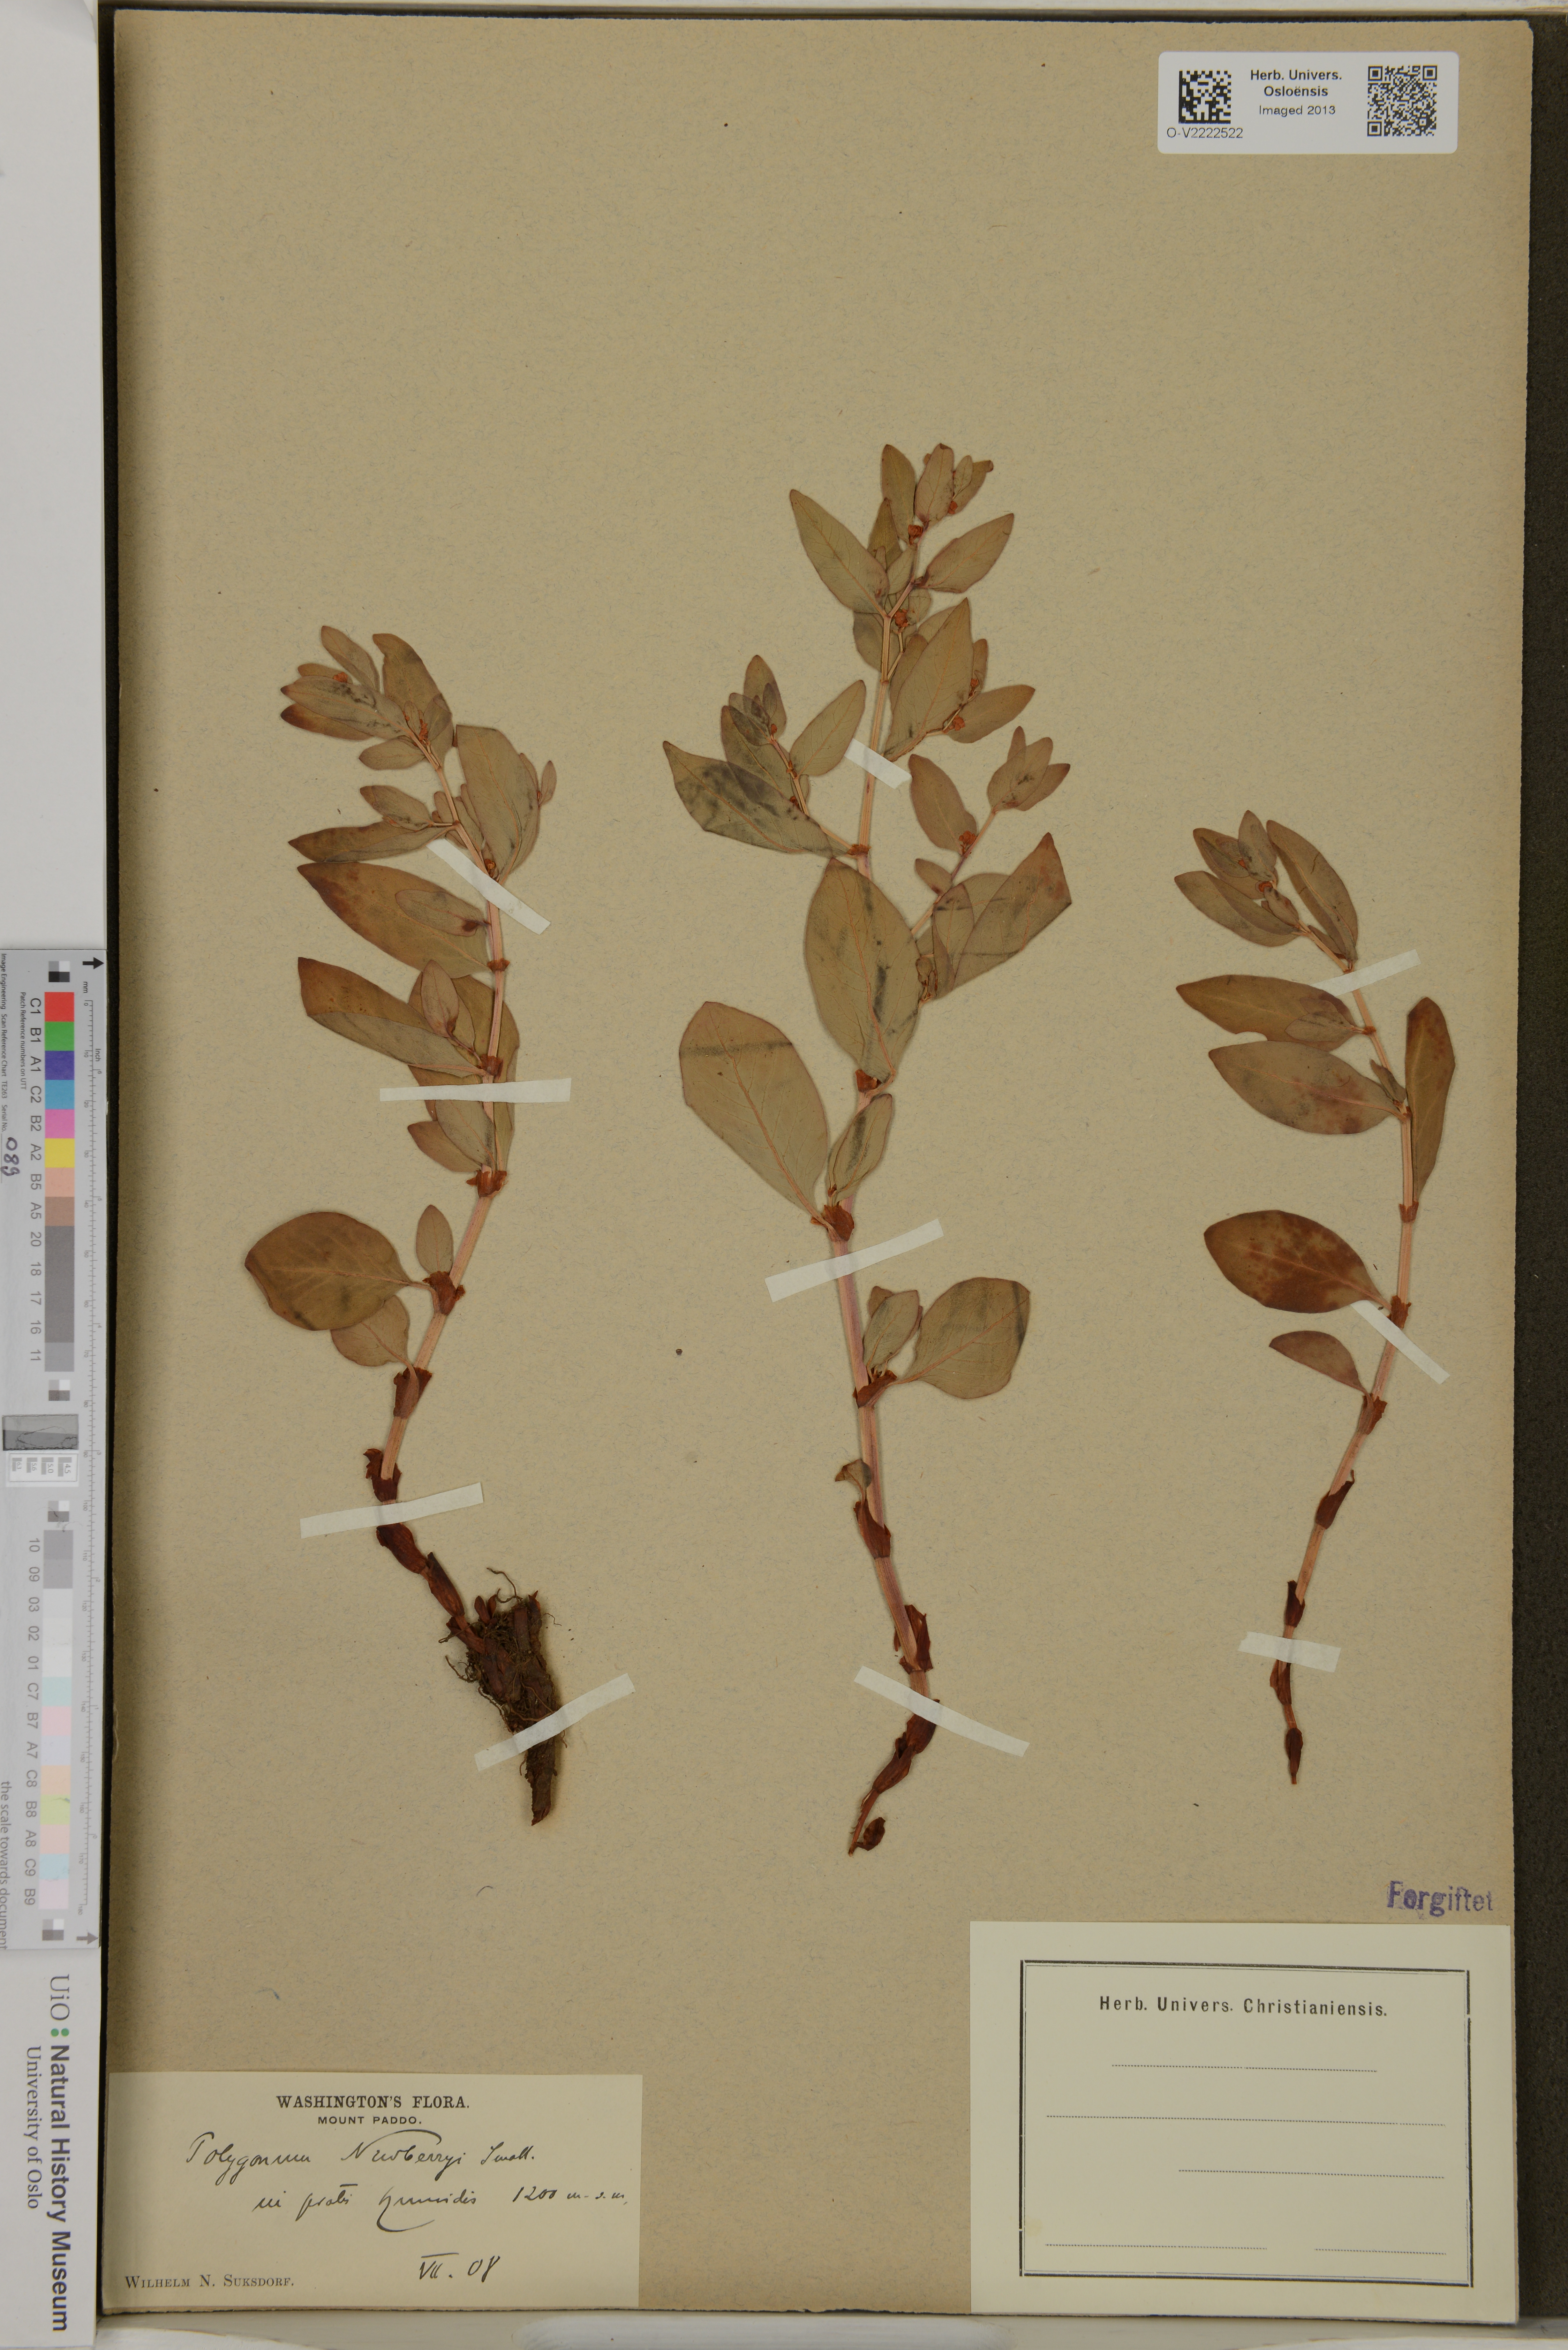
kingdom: Plantae
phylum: Tracheophyta
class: Magnoliopsida
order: Caryophyllales
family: Polygonaceae
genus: Koenigia
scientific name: Koenigia davisiae
